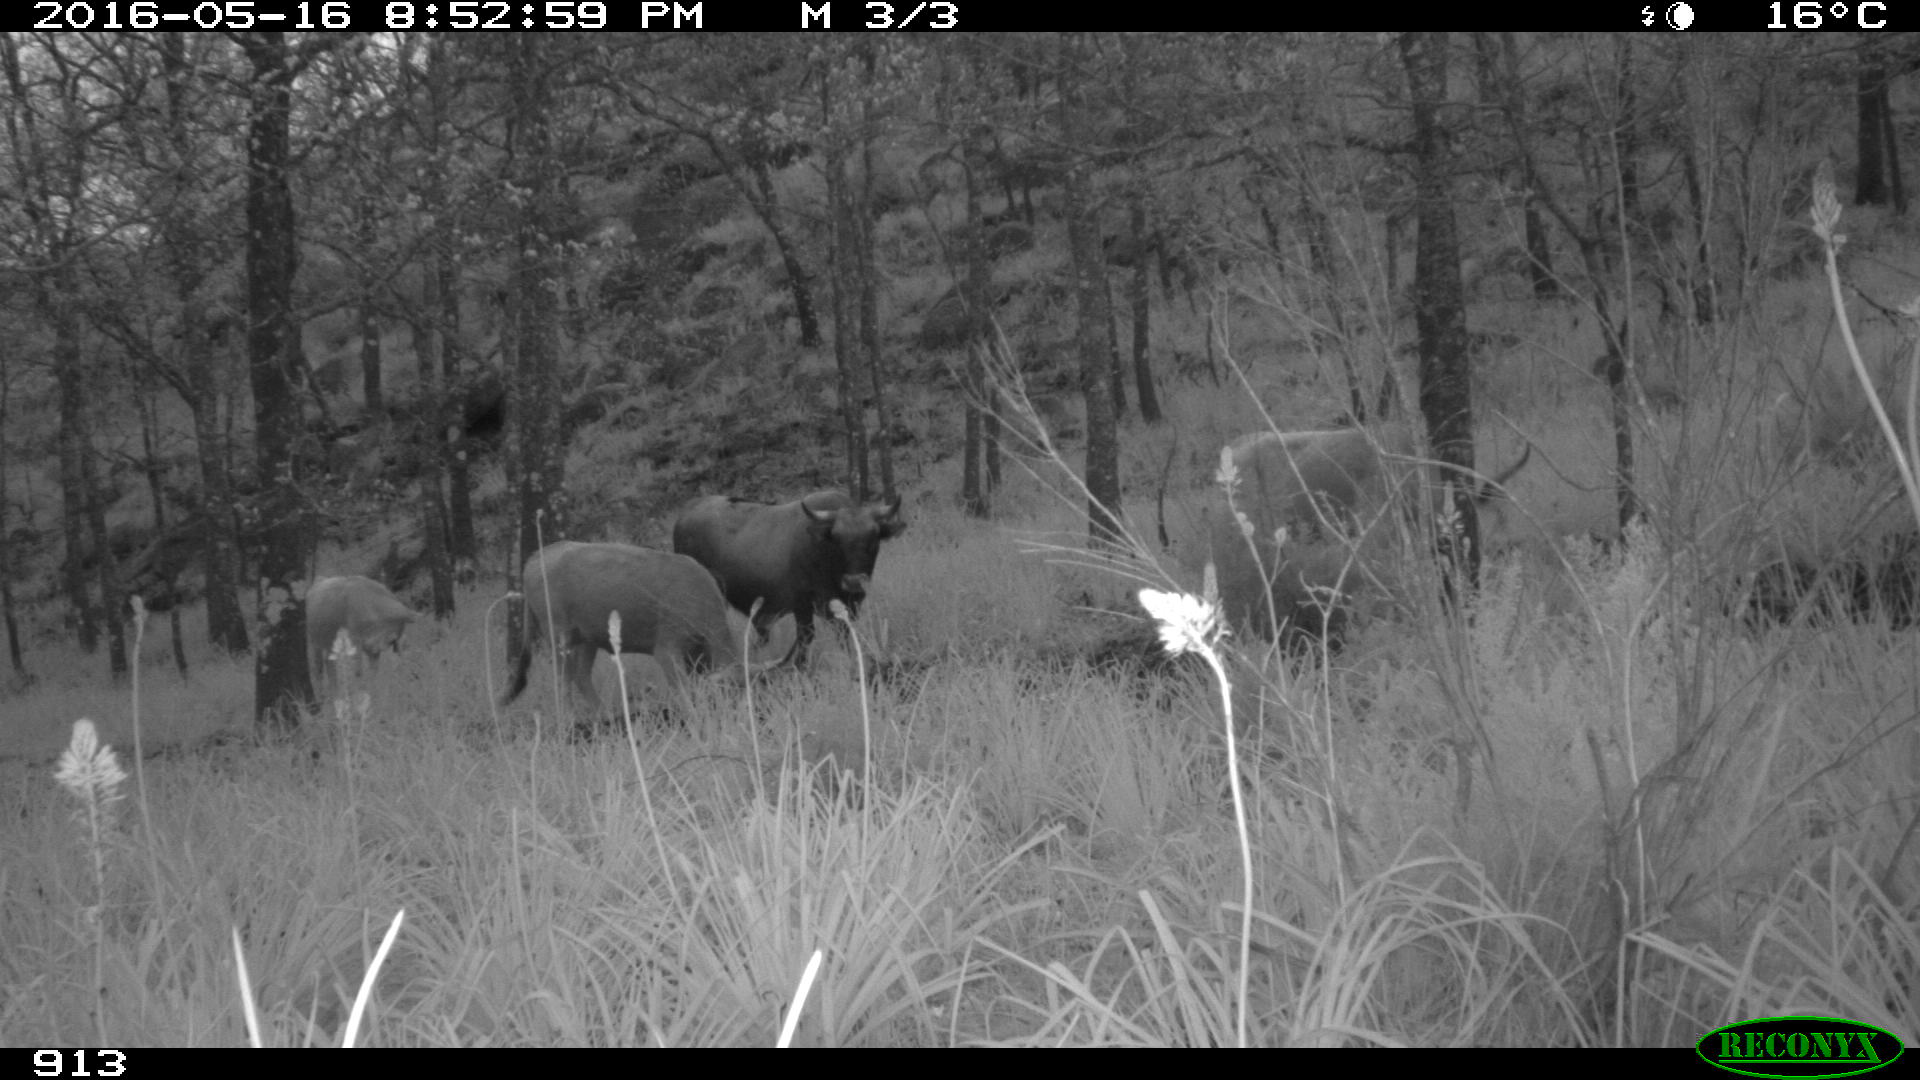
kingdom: Animalia
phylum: Chordata
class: Mammalia
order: Artiodactyla
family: Bovidae
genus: Bos
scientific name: Bos taurus
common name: Domesticated cattle
